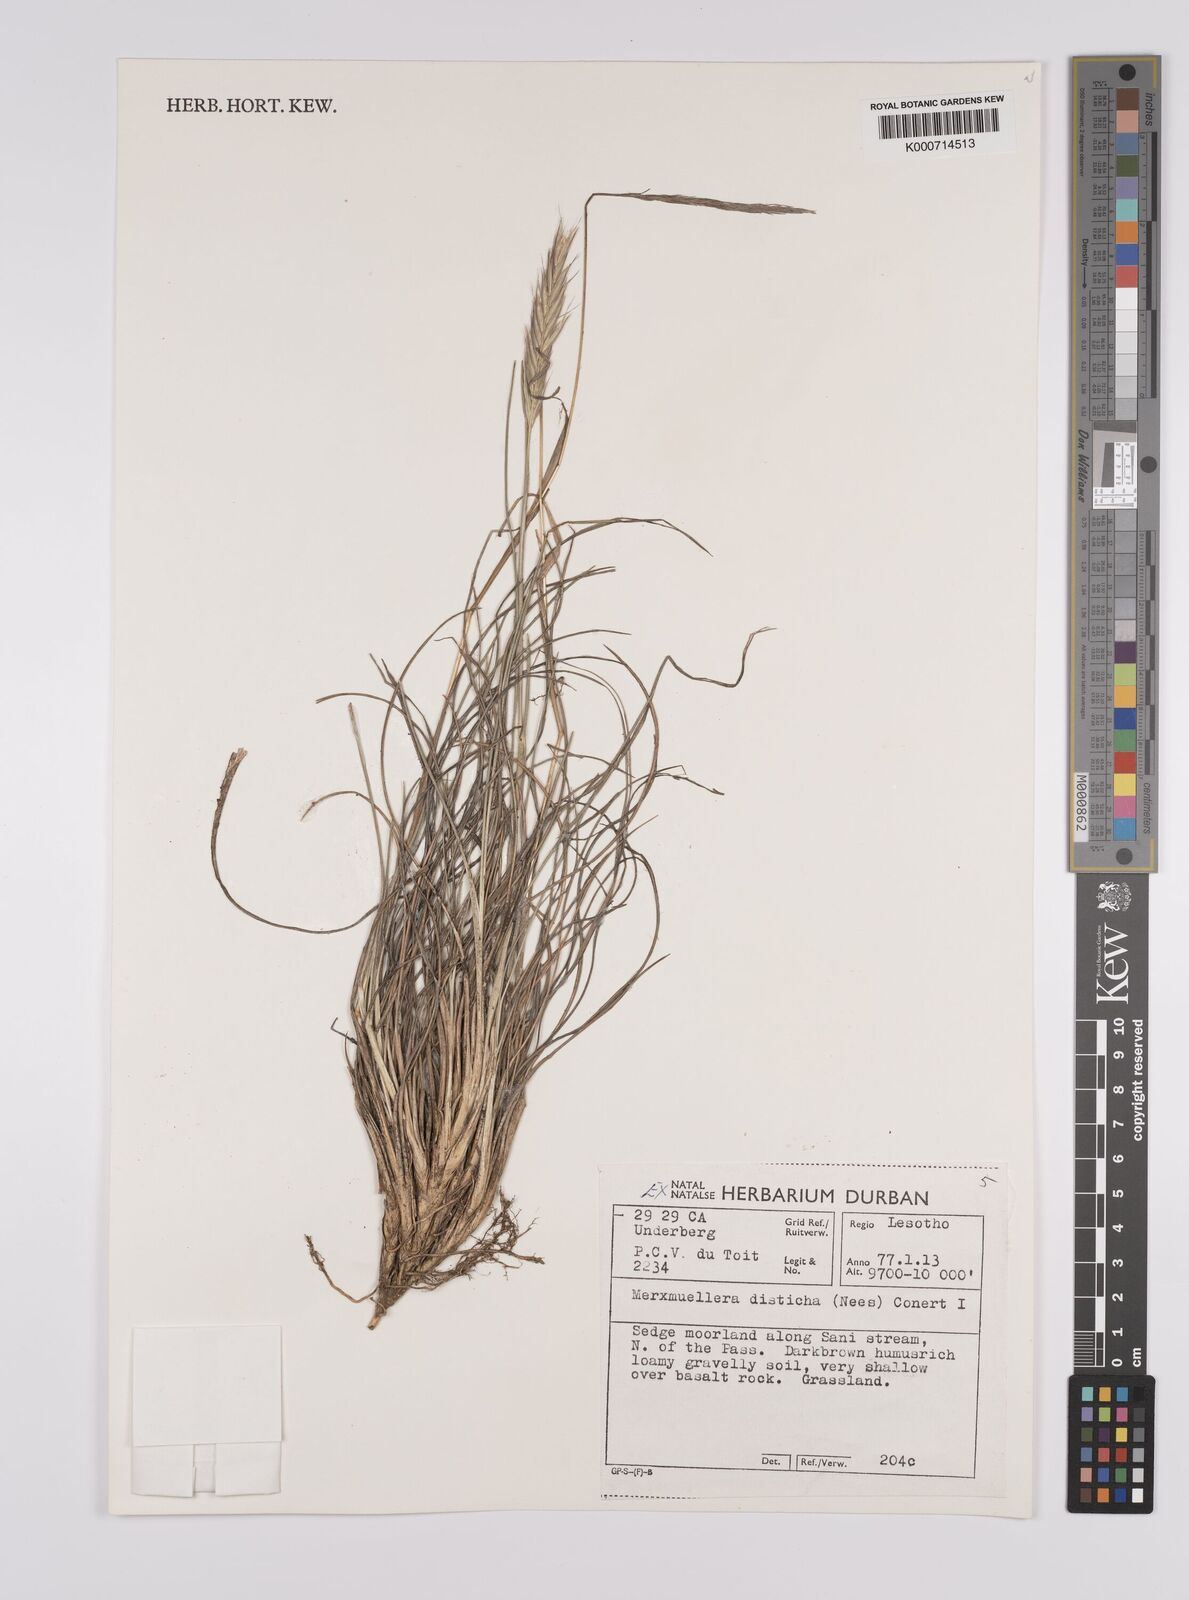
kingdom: Plantae
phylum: Tracheophyta
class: Liliopsida
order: Poales
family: Poaceae
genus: Tenaxia
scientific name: Tenaxia disticha
